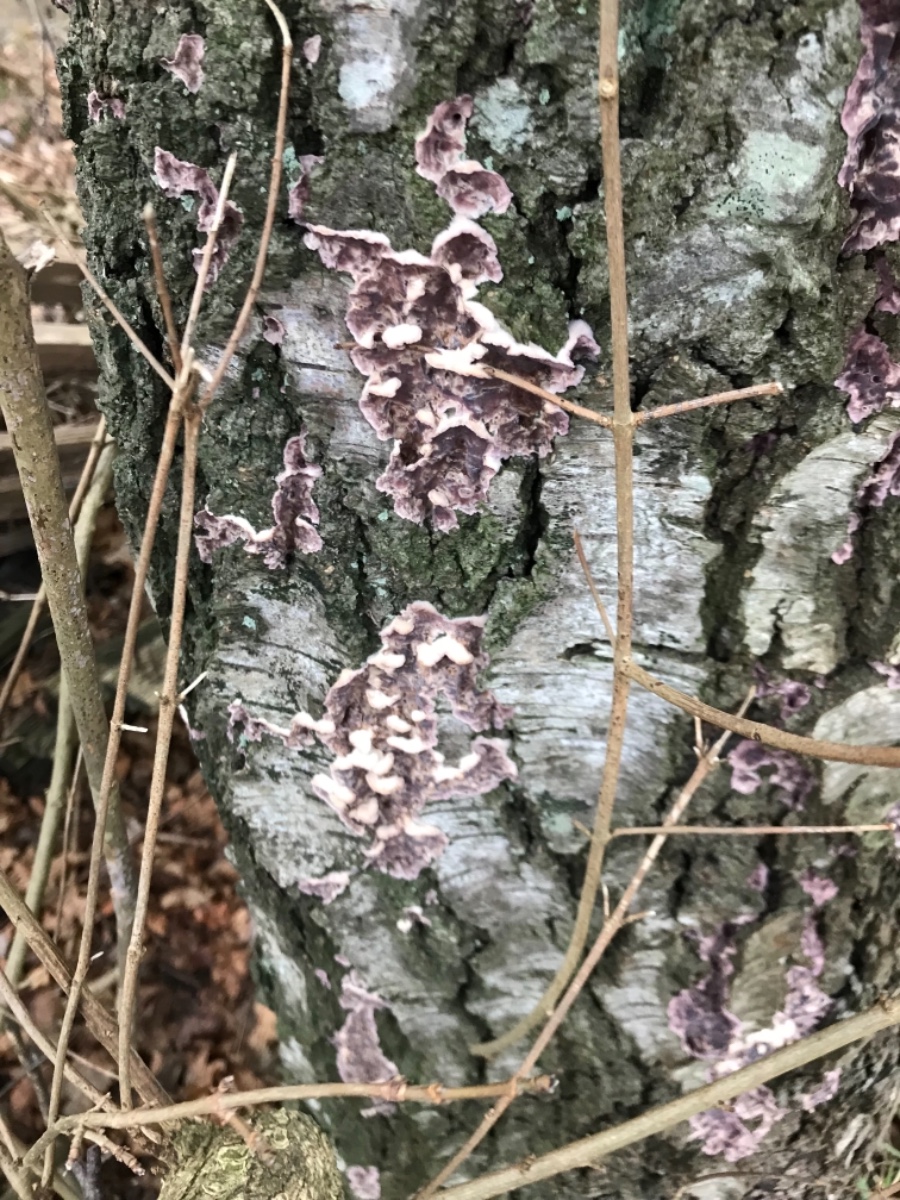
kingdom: Fungi
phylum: Basidiomycota
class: Agaricomycetes
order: Agaricales
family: Cyphellaceae
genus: Chondrostereum
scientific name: Chondrostereum purpureum
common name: purpurlædersvamp
